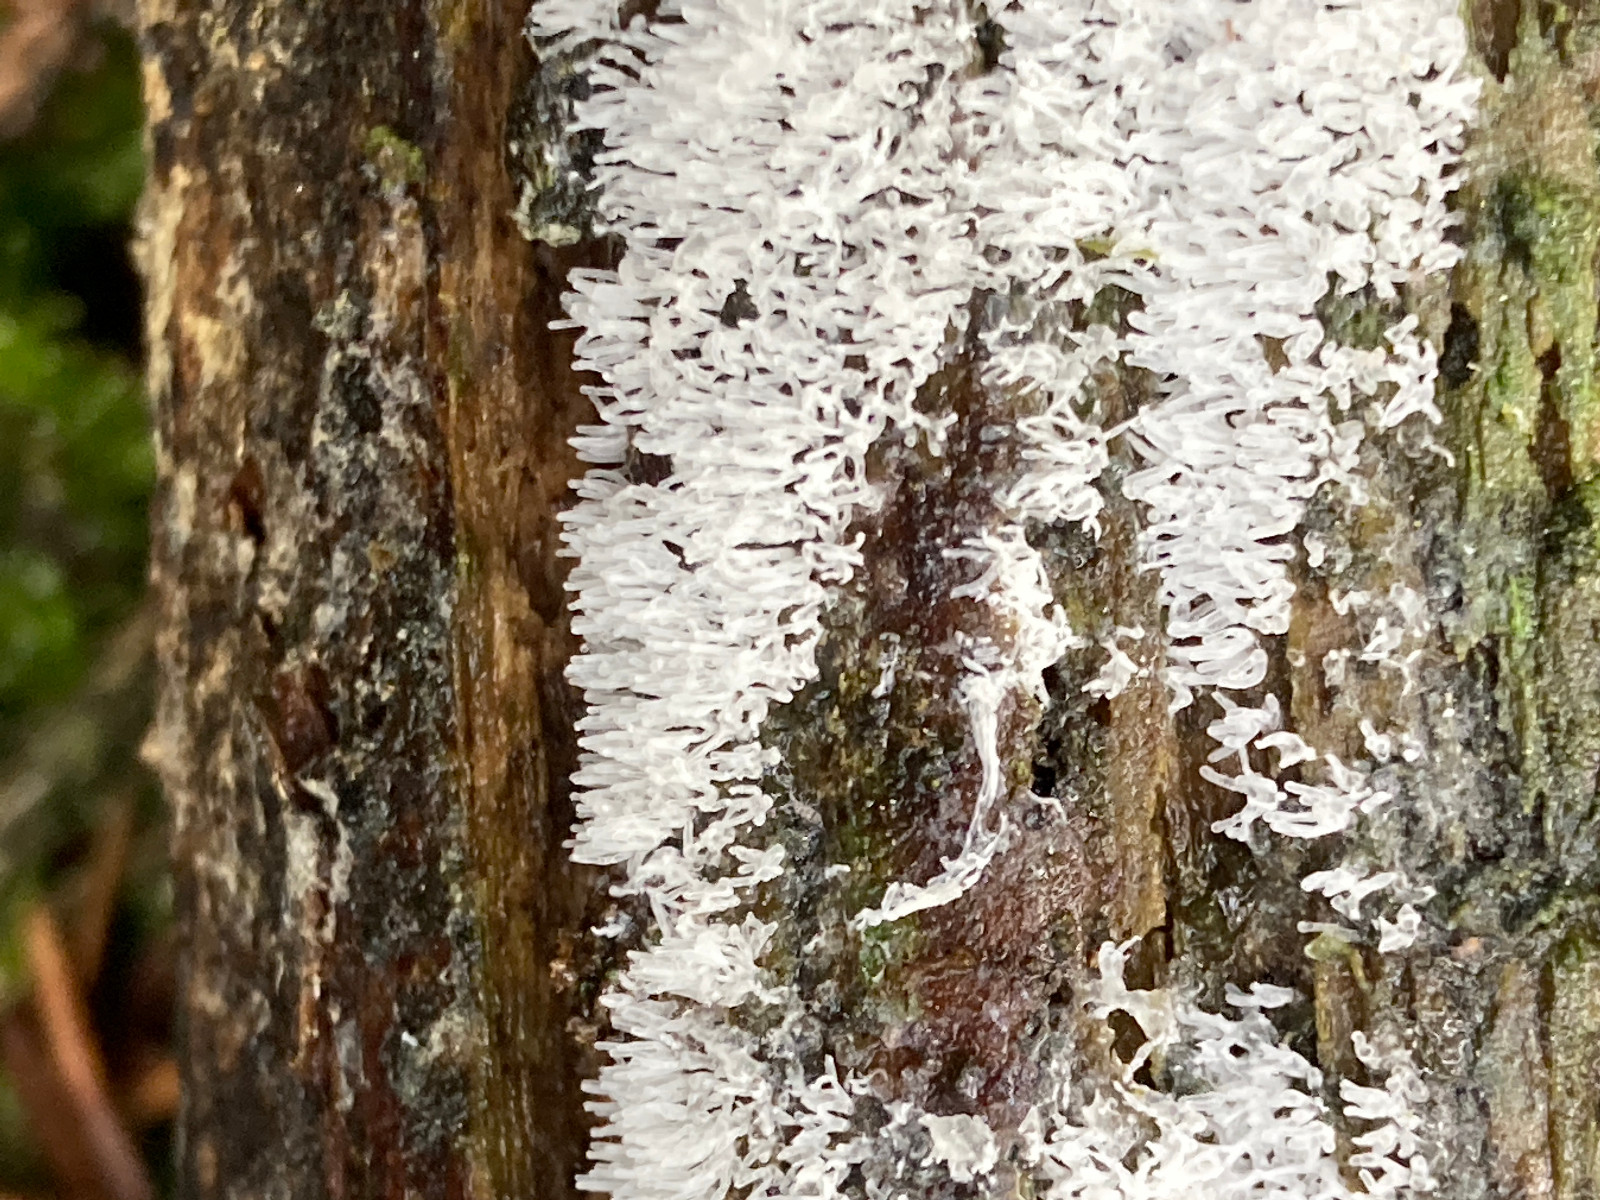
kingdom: Protozoa
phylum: Mycetozoa
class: Protosteliomycetes
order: Ceratiomyxales
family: Ceratiomyxaceae
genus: Ceratiomyxa
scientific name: Ceratiomyxa fruticulosa
